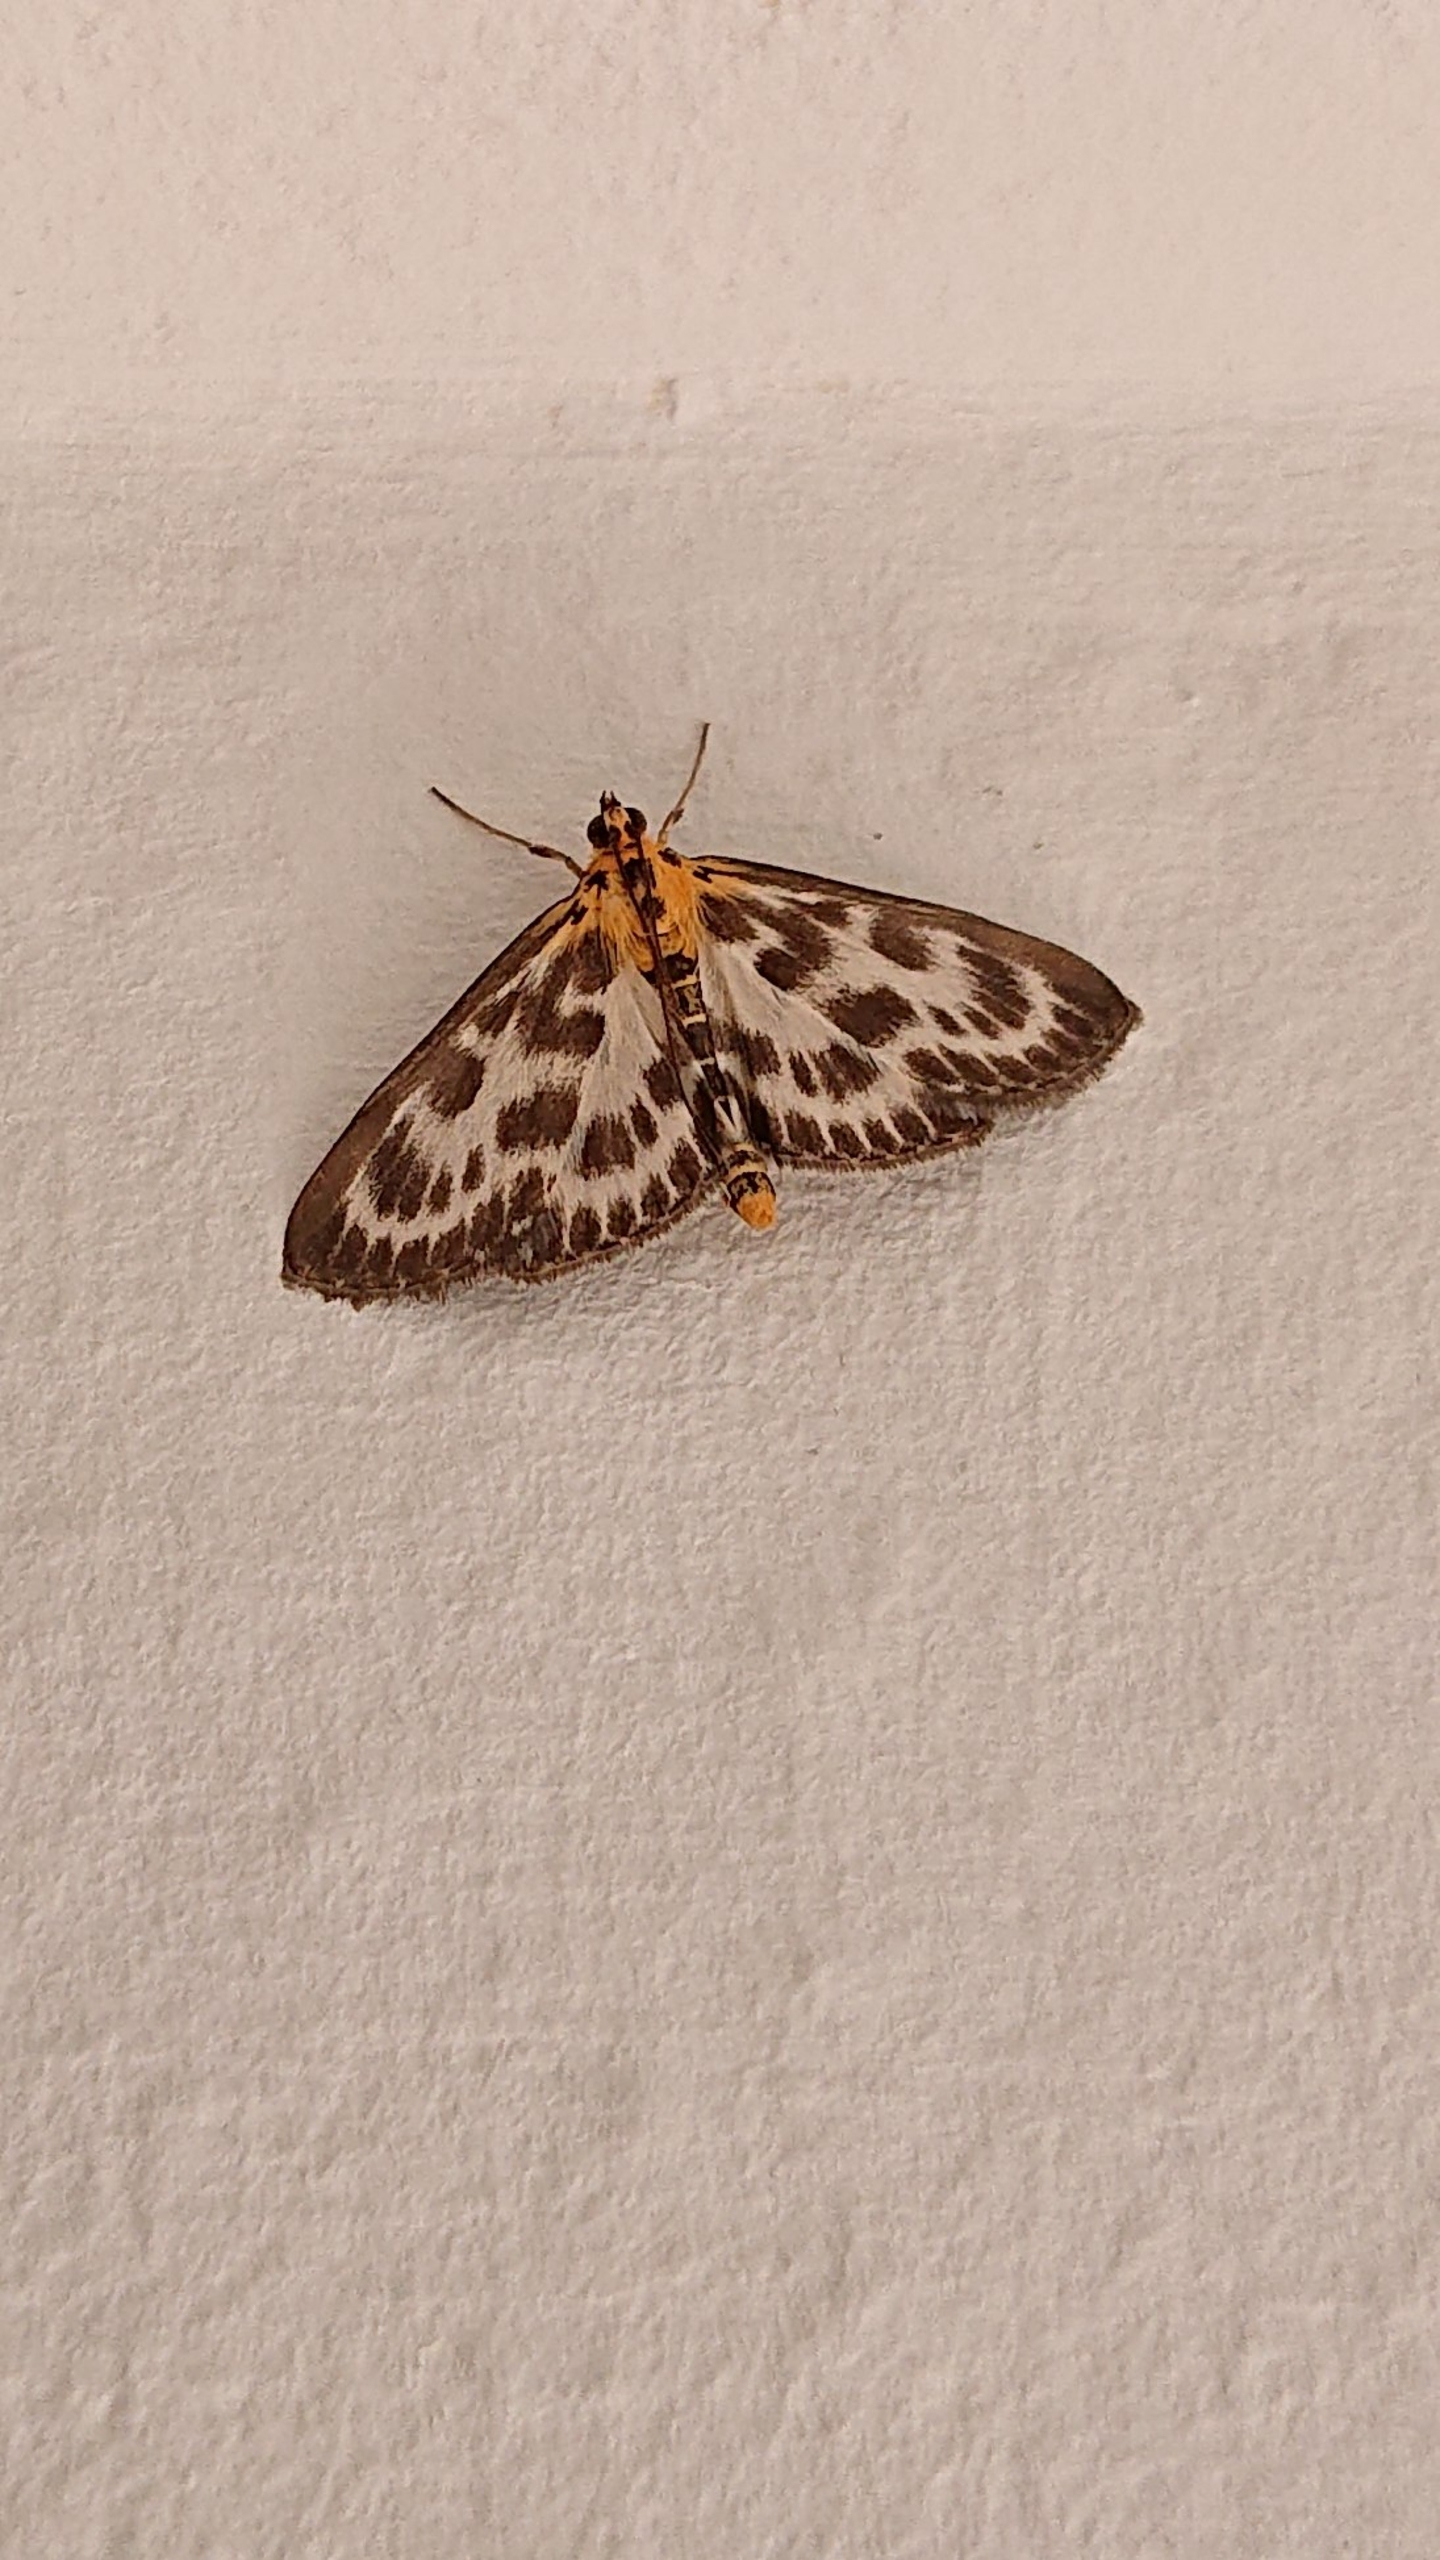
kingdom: Animalia
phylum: Arthropoda
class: Insecta
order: Lepidoptera
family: Crambidae
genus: Anania
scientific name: Anania hortulata
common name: Nældehalvmøl
